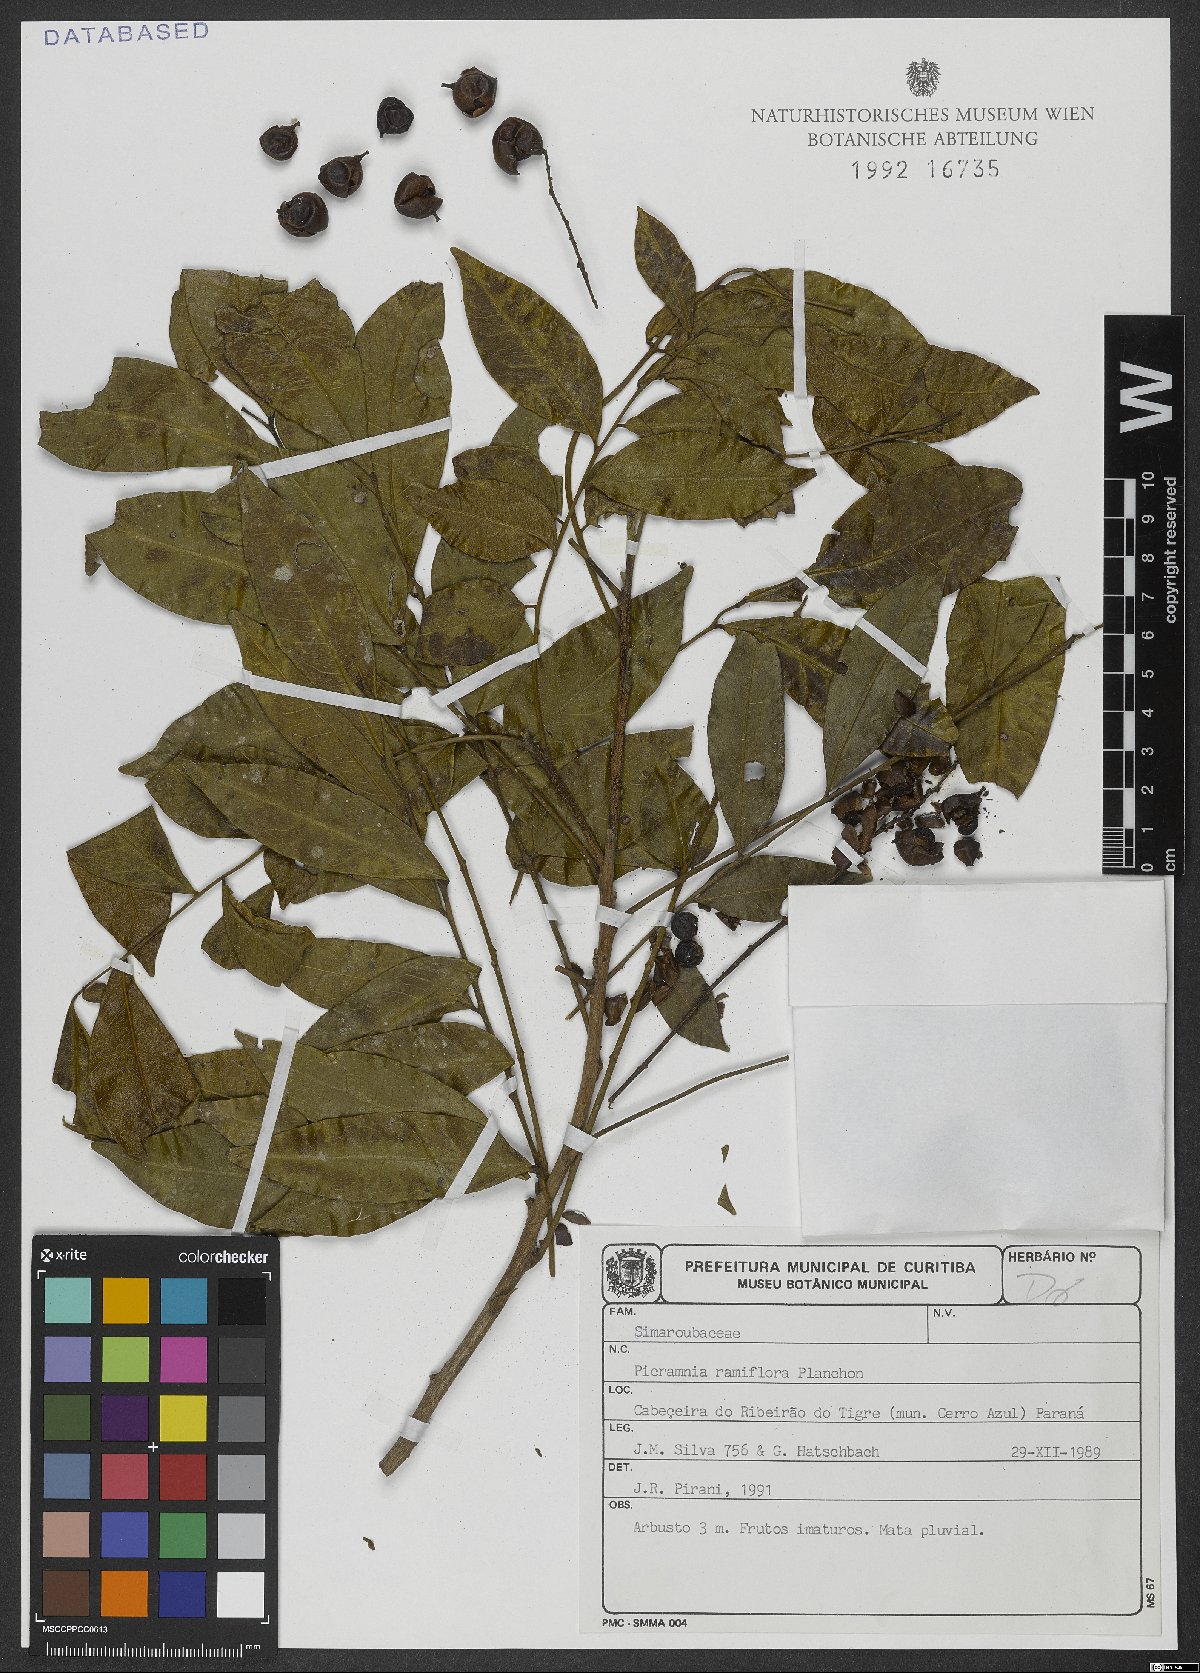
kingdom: Plantae
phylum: Tracheophyta
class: Magnoliopsida
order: Picramniales
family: Picramniaceae
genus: Picramnia
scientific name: Picramnia ramiflora
